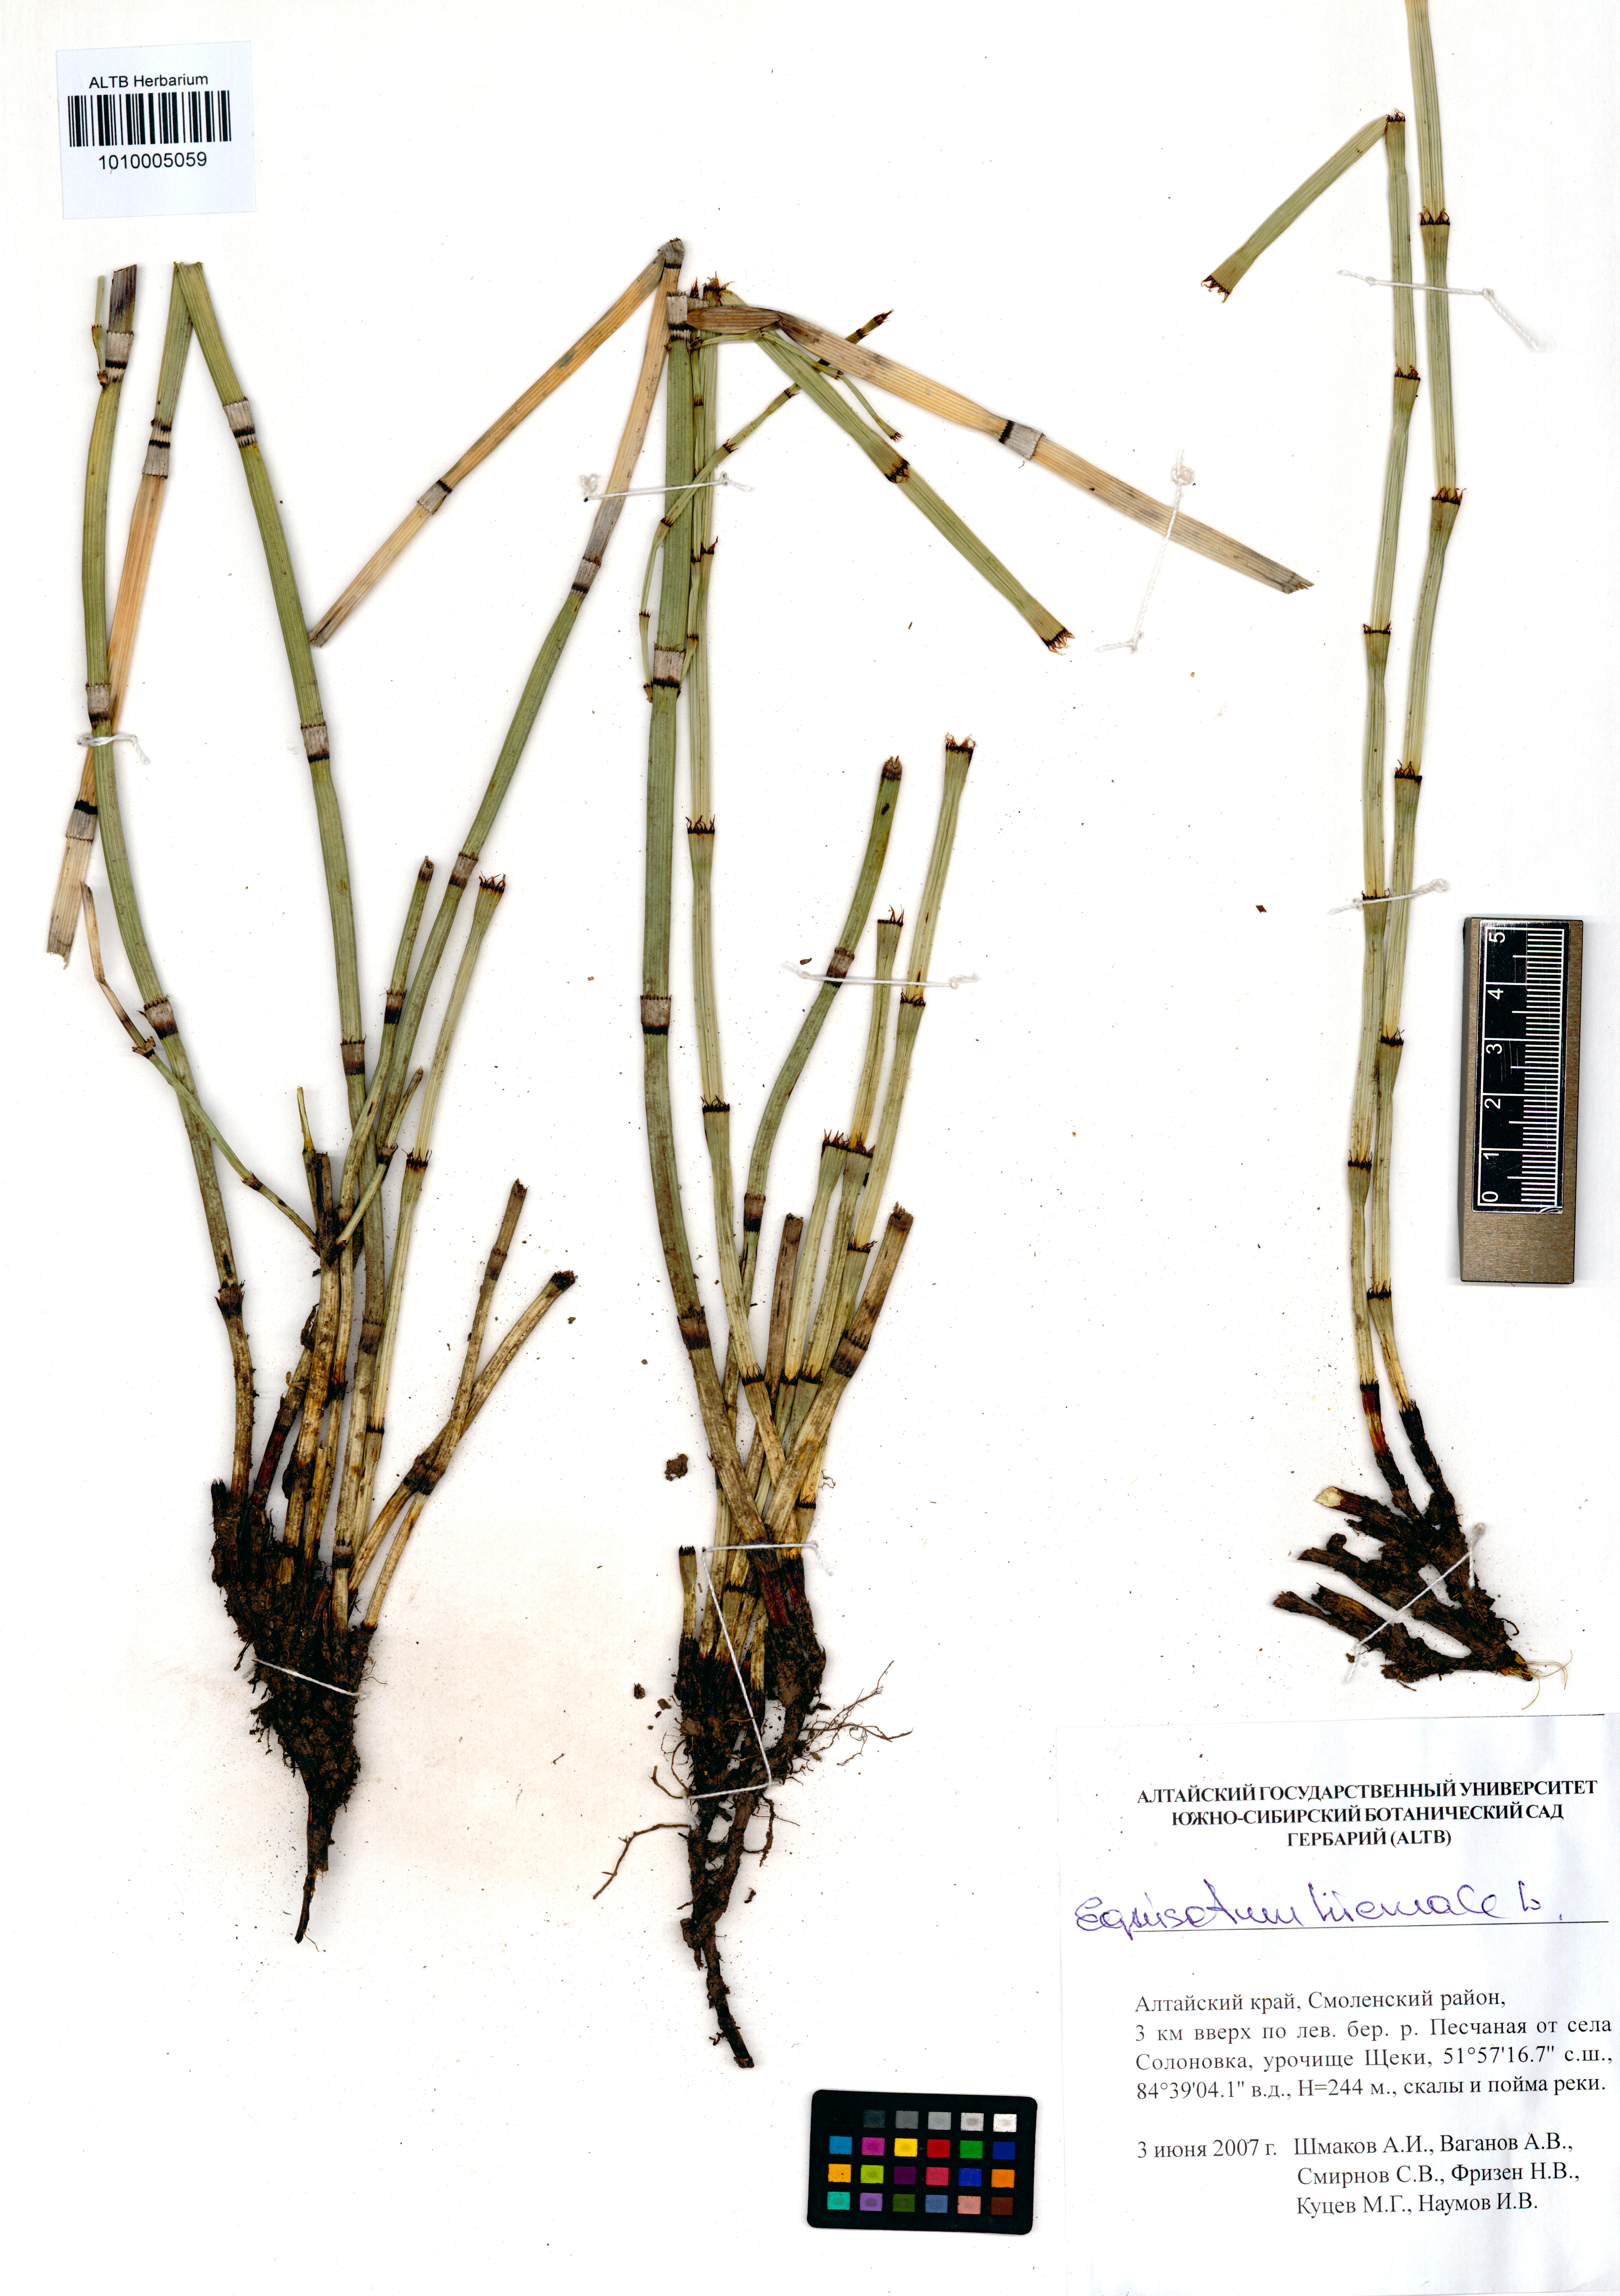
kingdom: Plantae
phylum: Tracheophyta
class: Polypodiopsida
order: Equisetales
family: Equisetaceae
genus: Equisetum
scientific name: Equisetum hyemale
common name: Rough horsetail
